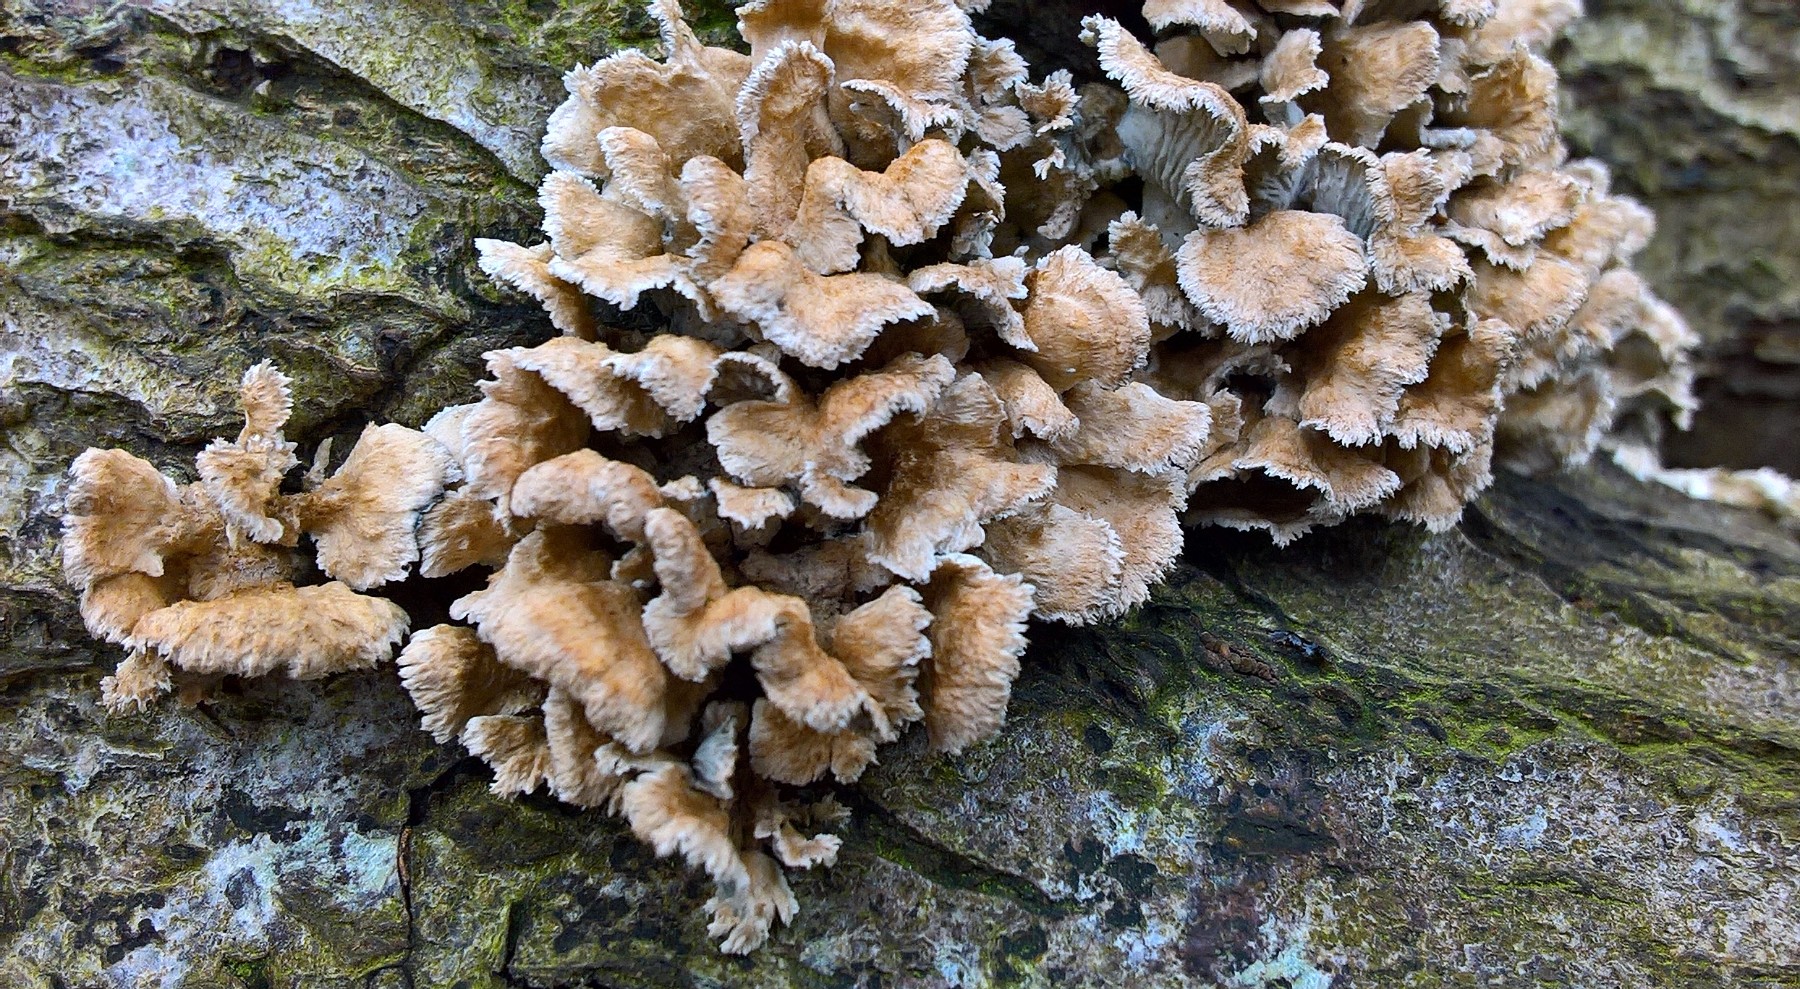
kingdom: Fungi
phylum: Basidiomycota
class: Agaricomycetes
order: Amylocorticiales
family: Amylocorticiaceae
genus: Plicaturopsis
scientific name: Plicaturopsis crispa
